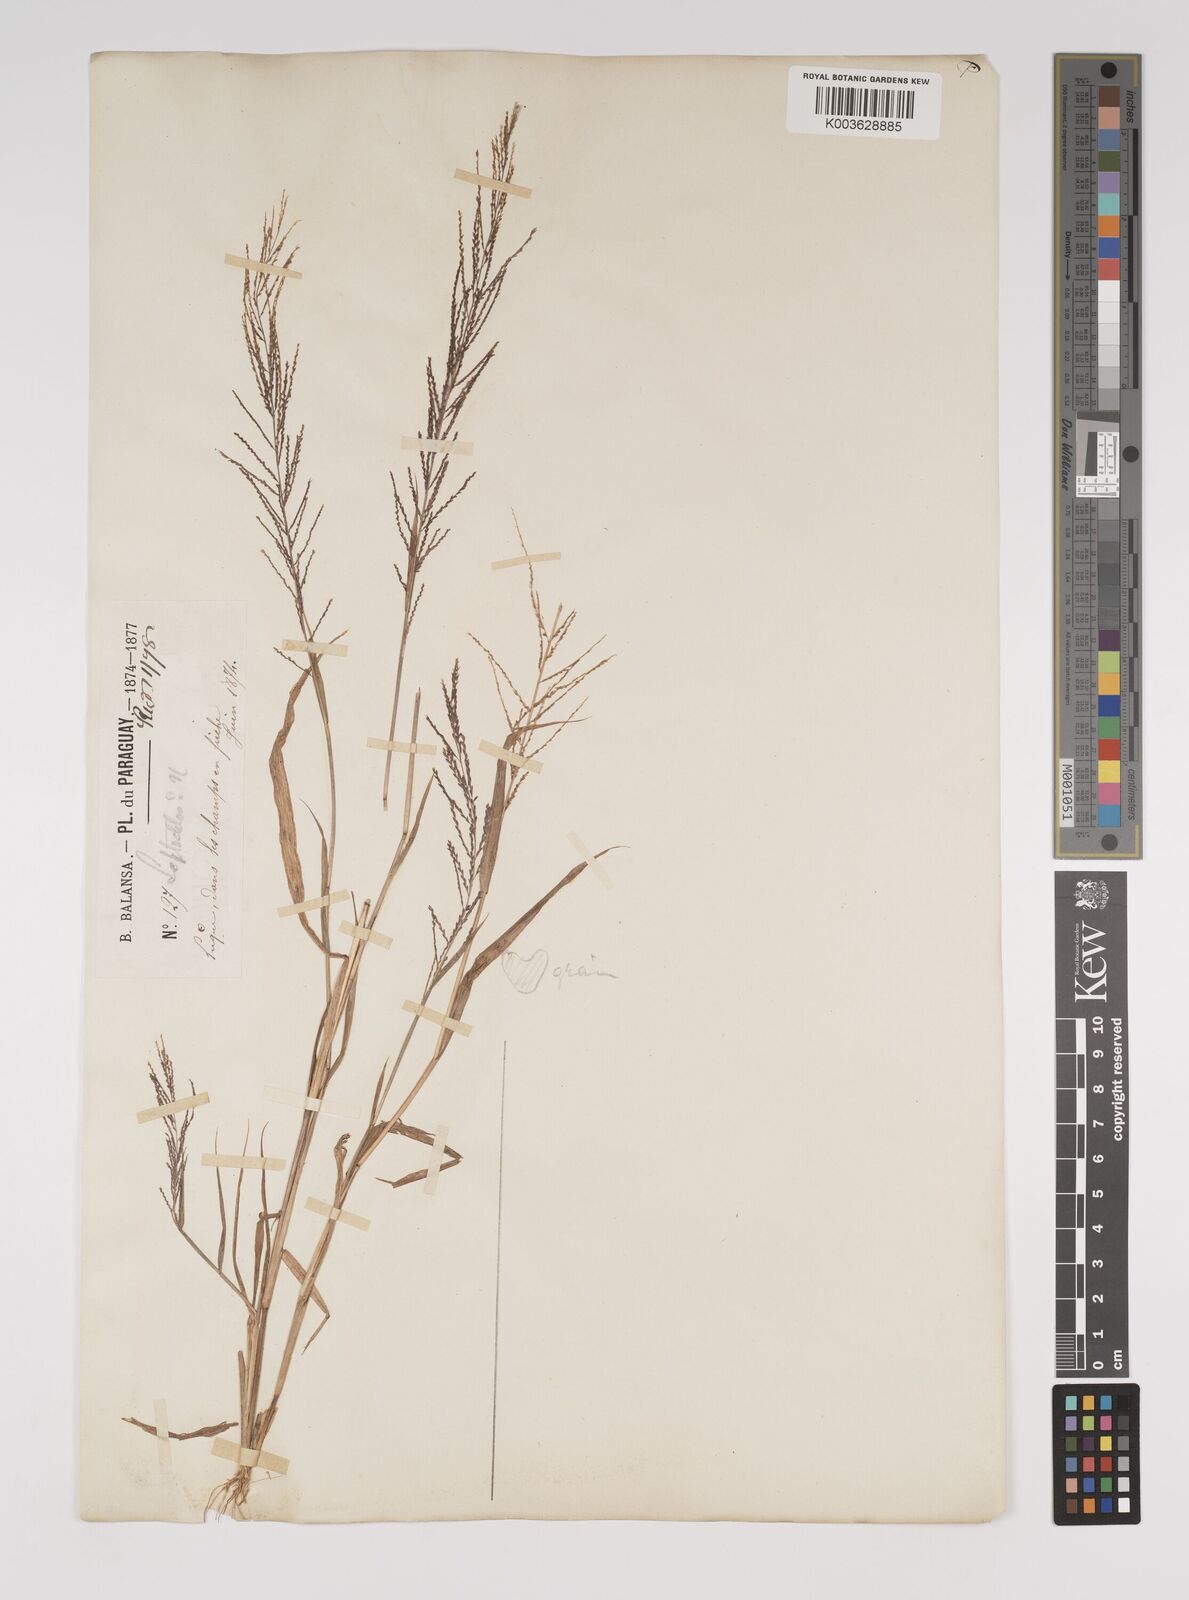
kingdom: Plantae
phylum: Tracheophyta
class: Liliopsida
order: Poales
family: Poaceae
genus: Leptochloa
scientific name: Leptochloa panicea
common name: Mucronate sprangletop
